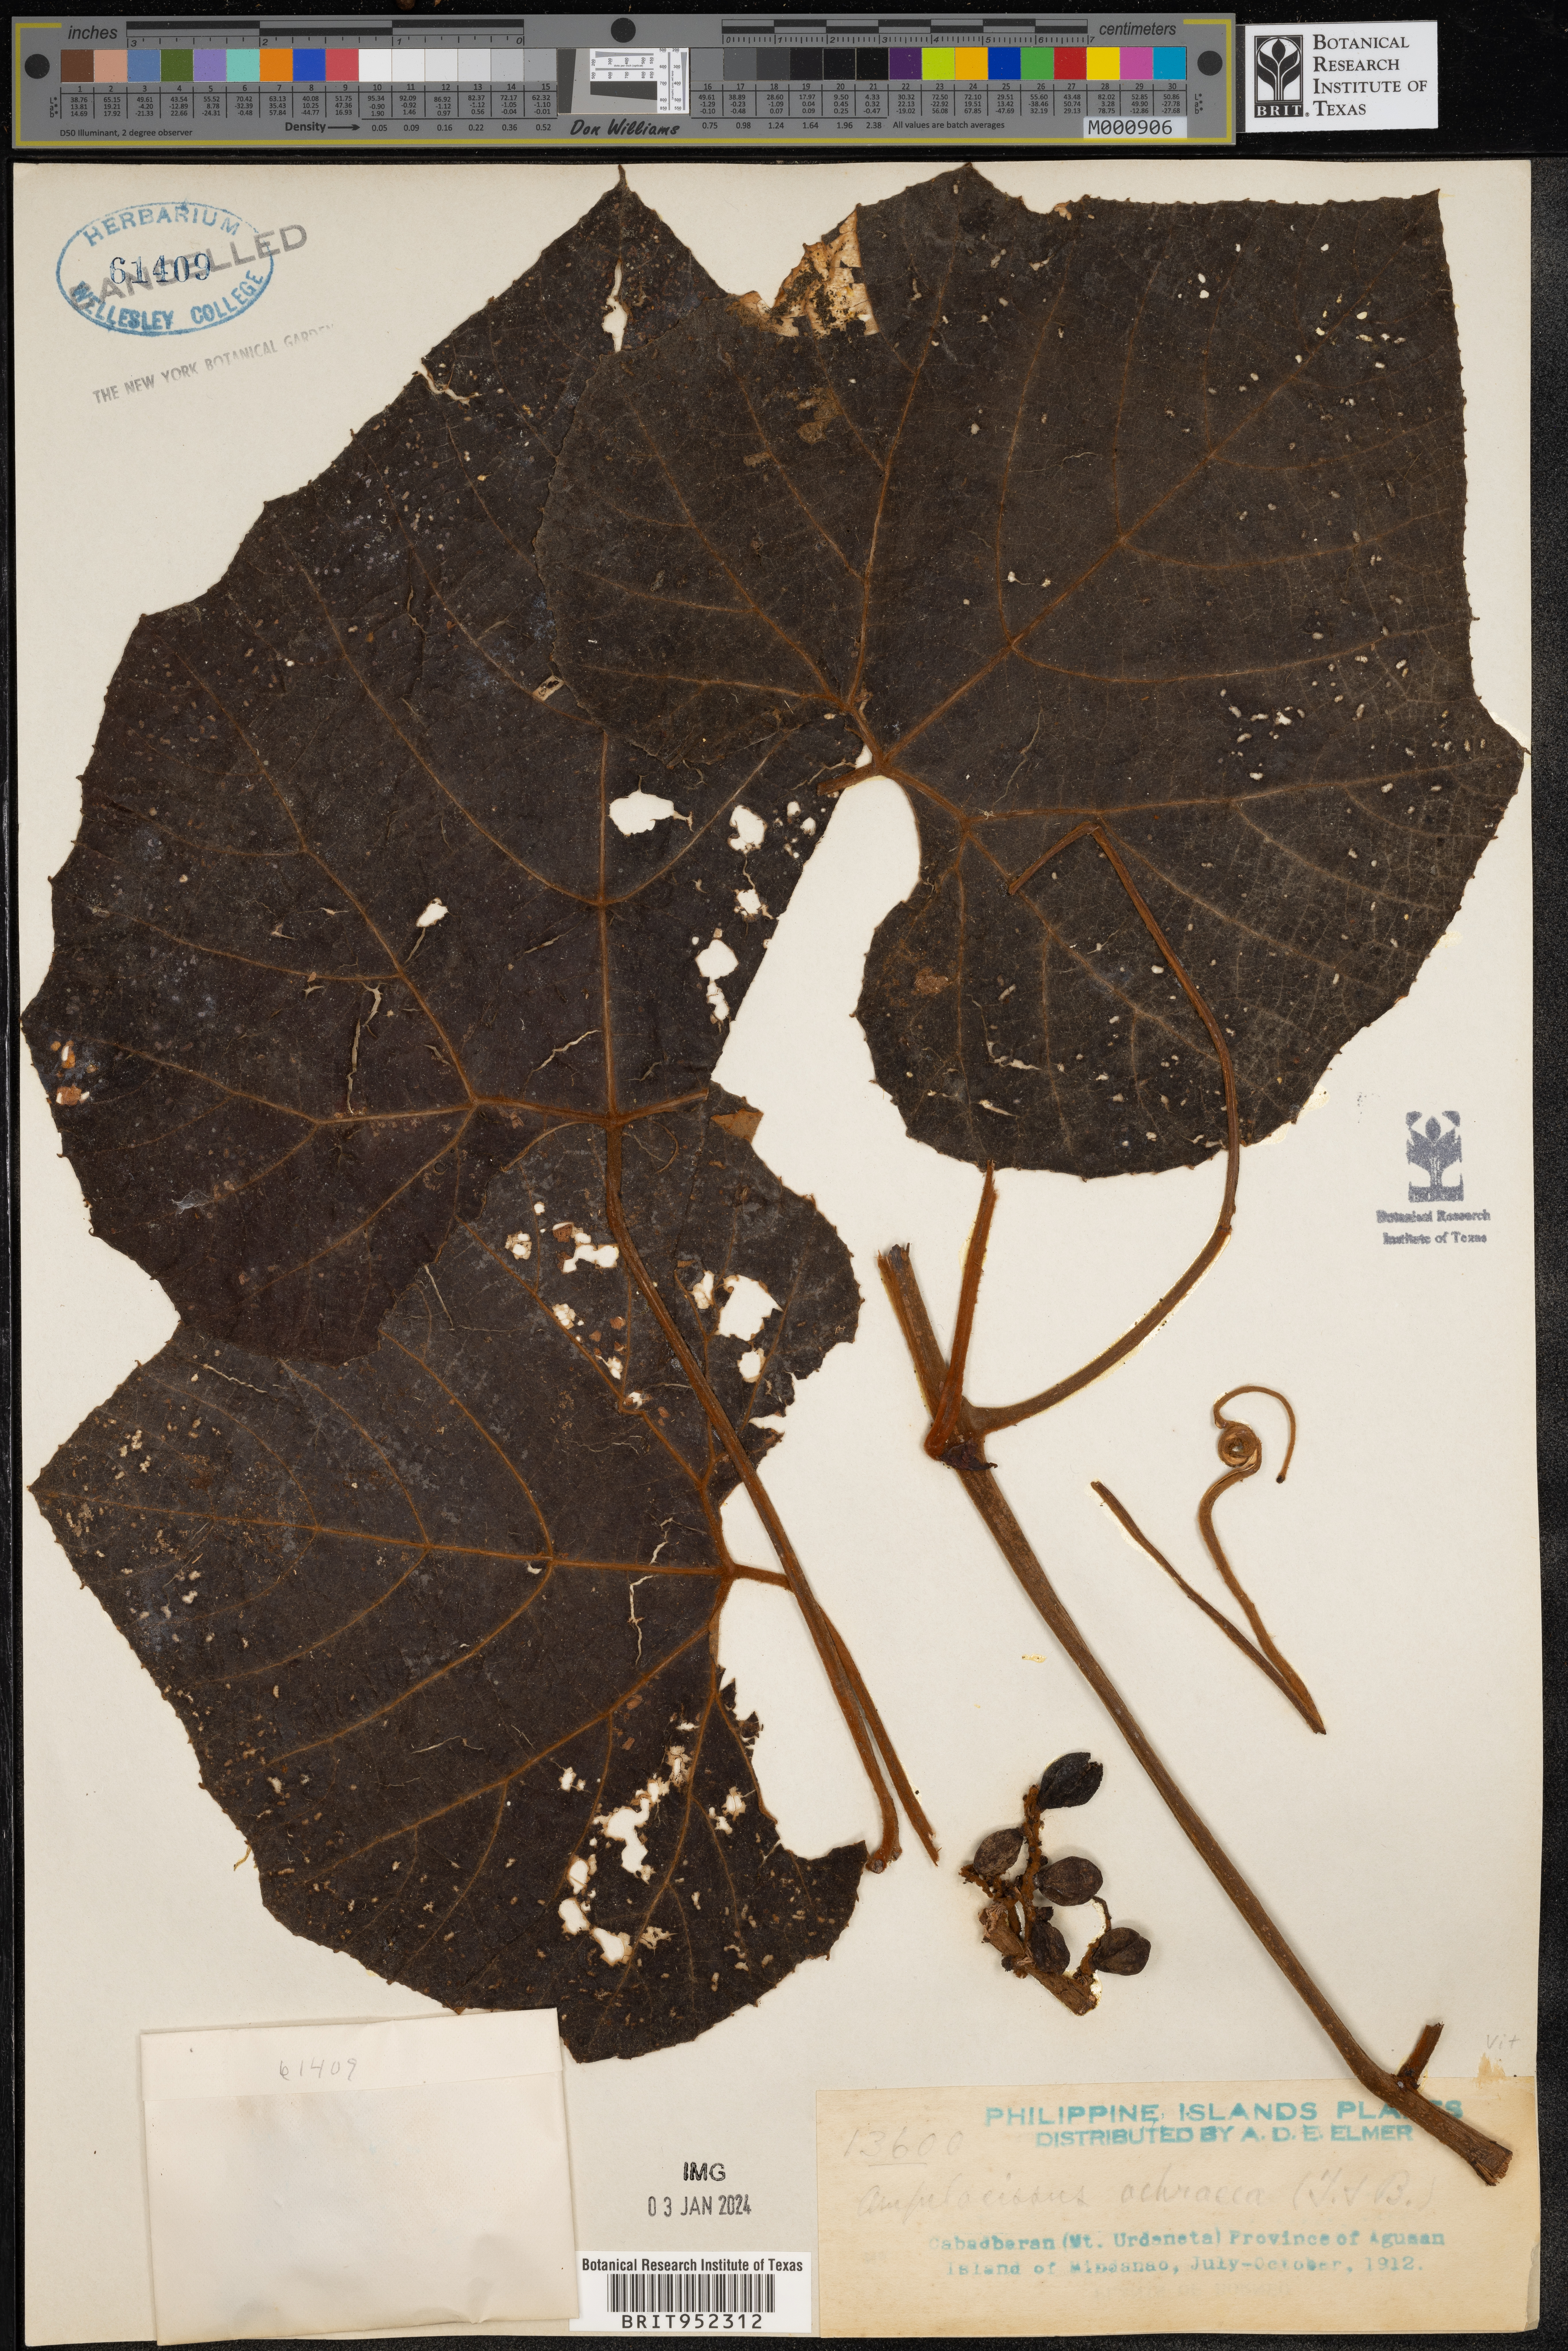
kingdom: Plantae
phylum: Tracheophyta
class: Magnoliopsida
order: Vitales
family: Vitaceae
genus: Ampelocissus
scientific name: Ampelocissus
